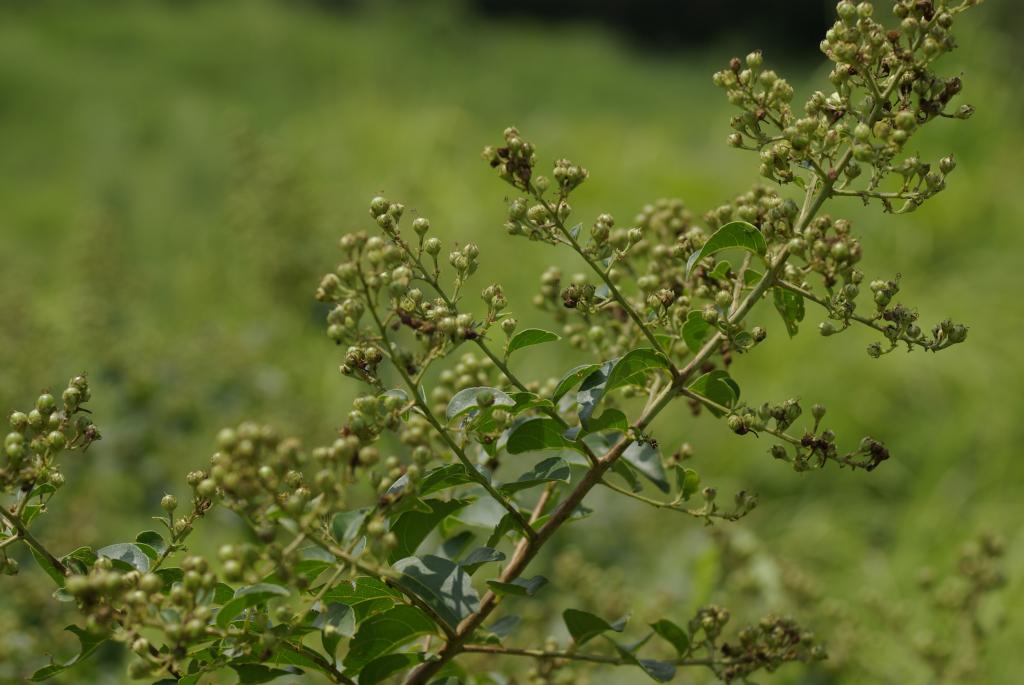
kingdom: Plantae
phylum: Tracheophyta
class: Magnoliopsida
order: Myrtales
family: Lythraceae
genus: Lagerstroemia
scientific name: Lagerstroemia subcostata
